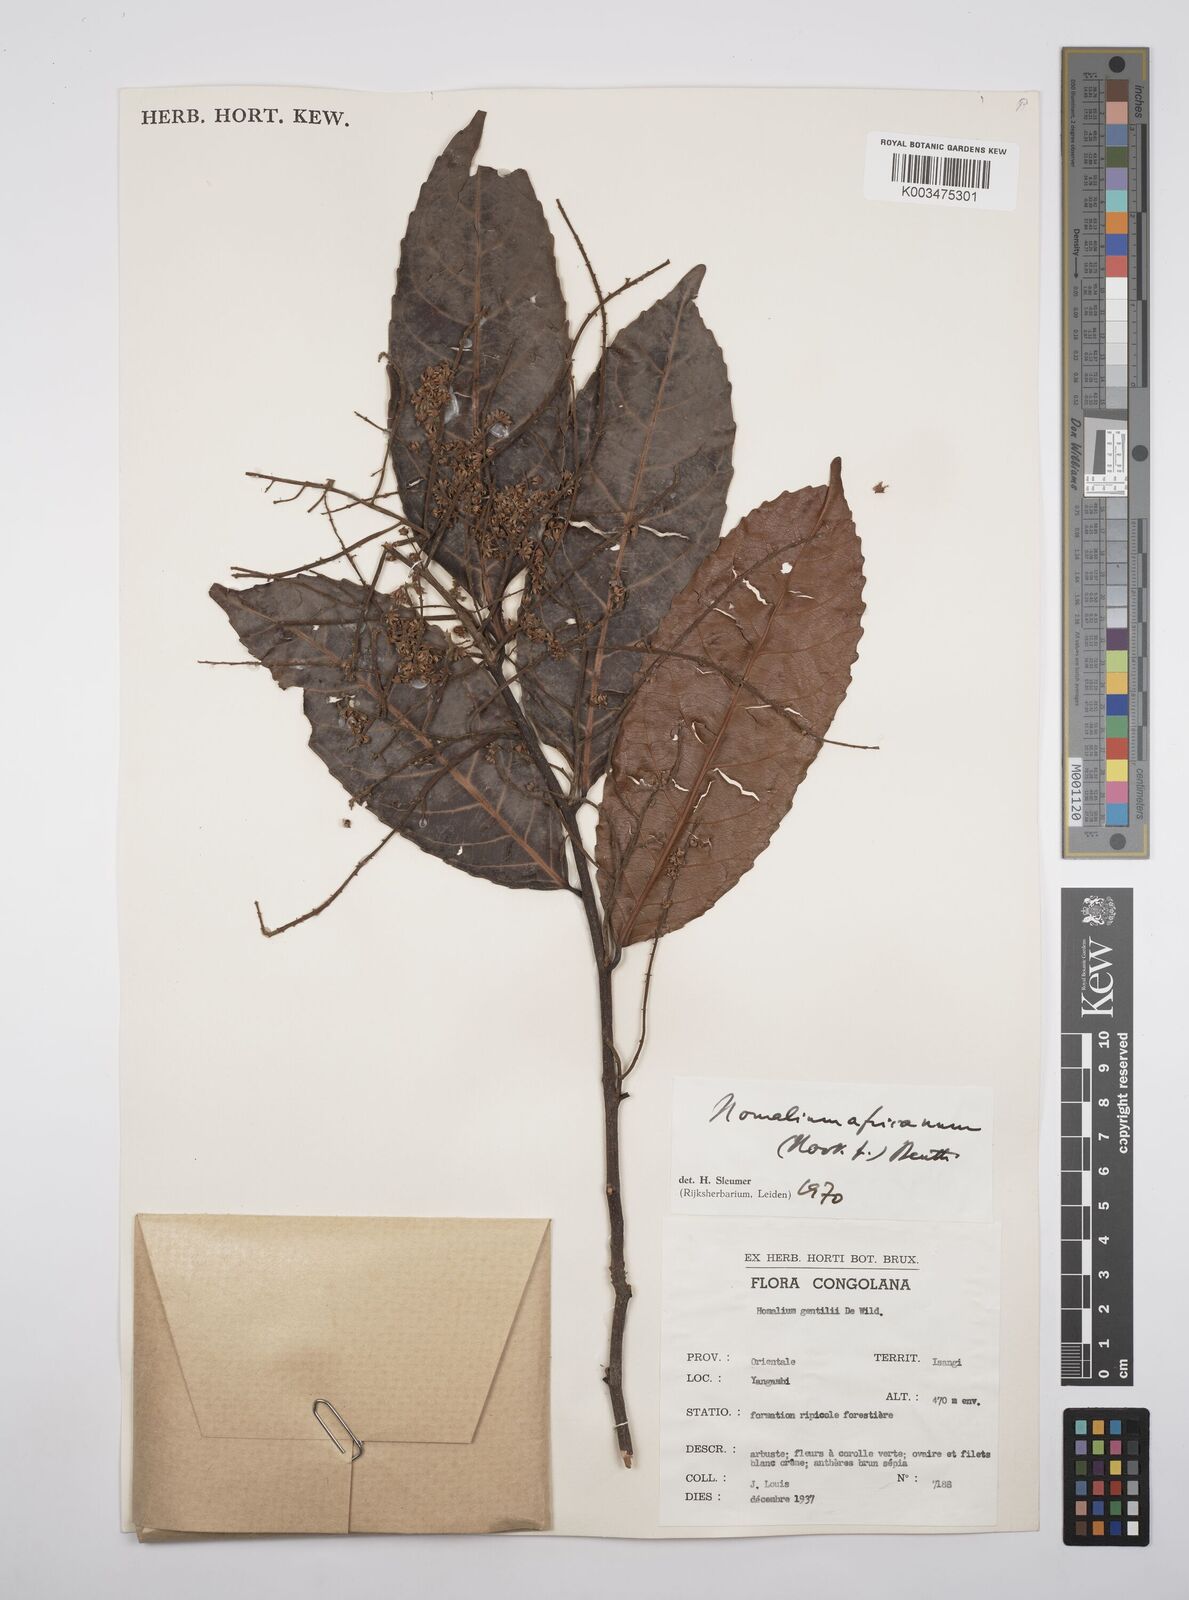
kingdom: Plantae
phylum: Tracheophyta
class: Magnoliopsida
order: Malpighiales
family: Salicaceae
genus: Homalium
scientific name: Homalium africanum
